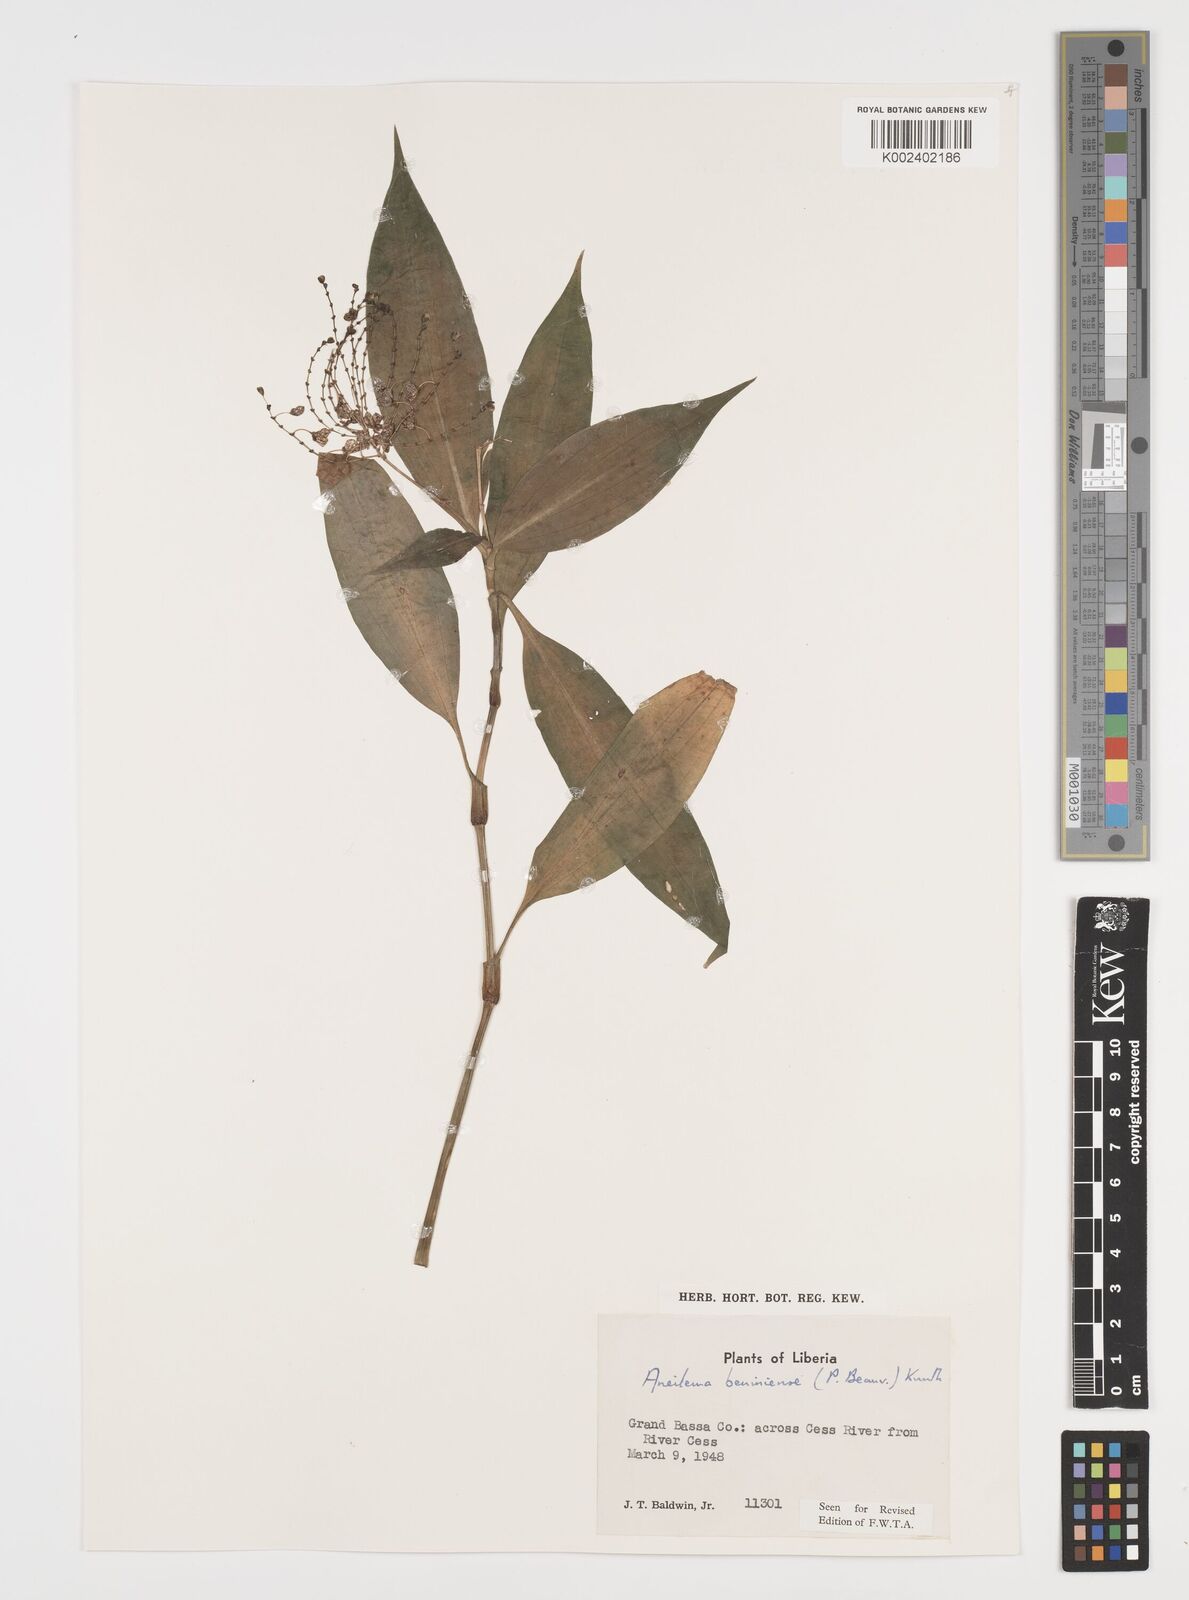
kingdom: Plantae
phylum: Tracheophyta
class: Liliopsida
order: Commelinales
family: Commelinaceae
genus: Aneilema
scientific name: Aneilema beniniense
